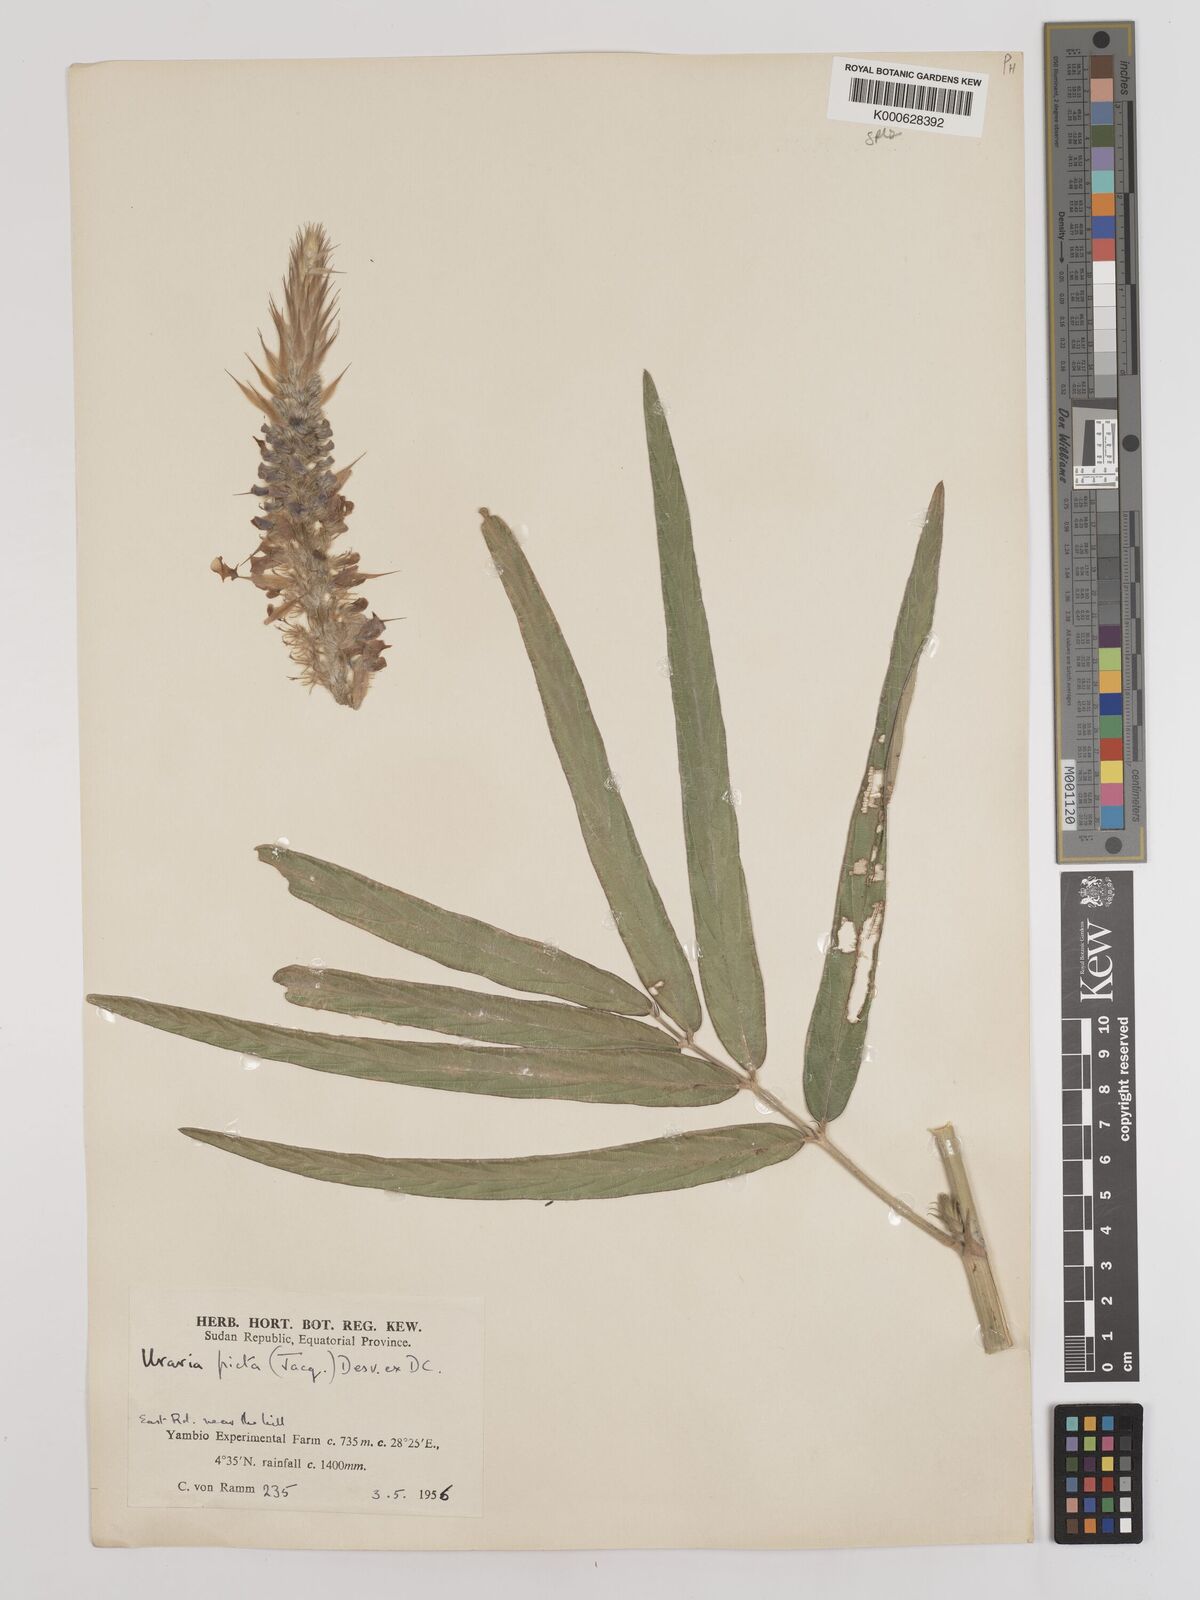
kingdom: Plantae
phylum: Tracheophyta
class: Magnoliopsida
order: Fabales
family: Fabaceae
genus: Uraria
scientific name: Uraria picta
